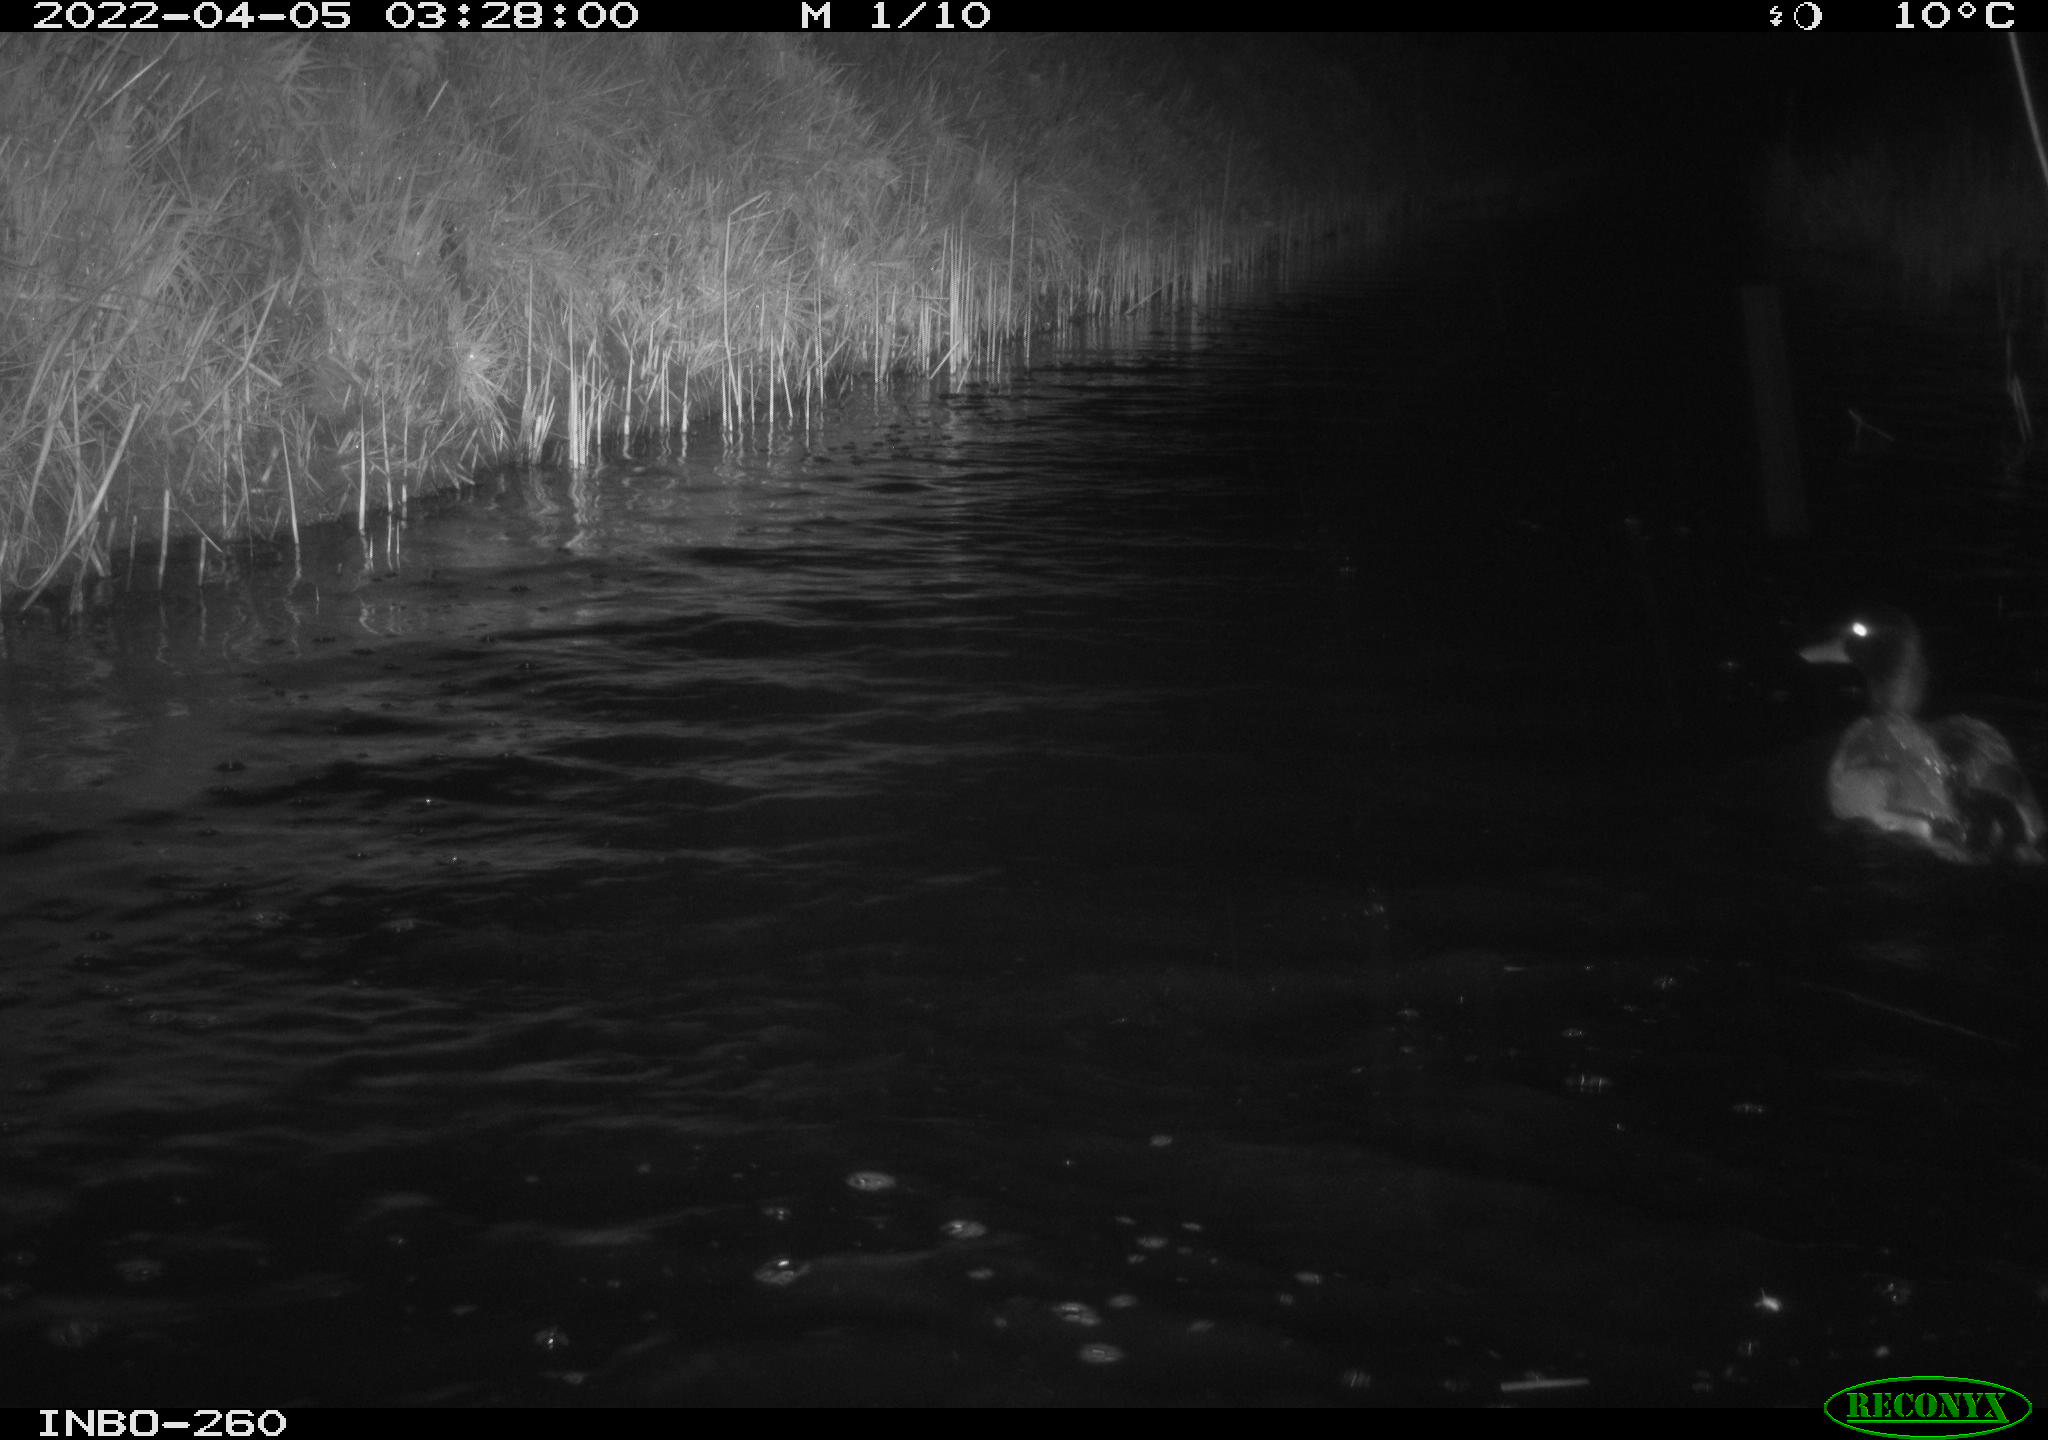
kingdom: Animalia
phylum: Chordata
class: Aves
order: Anseriformes
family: Anatidae
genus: Anas
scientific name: Anas platyrhynchos
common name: Mallard
